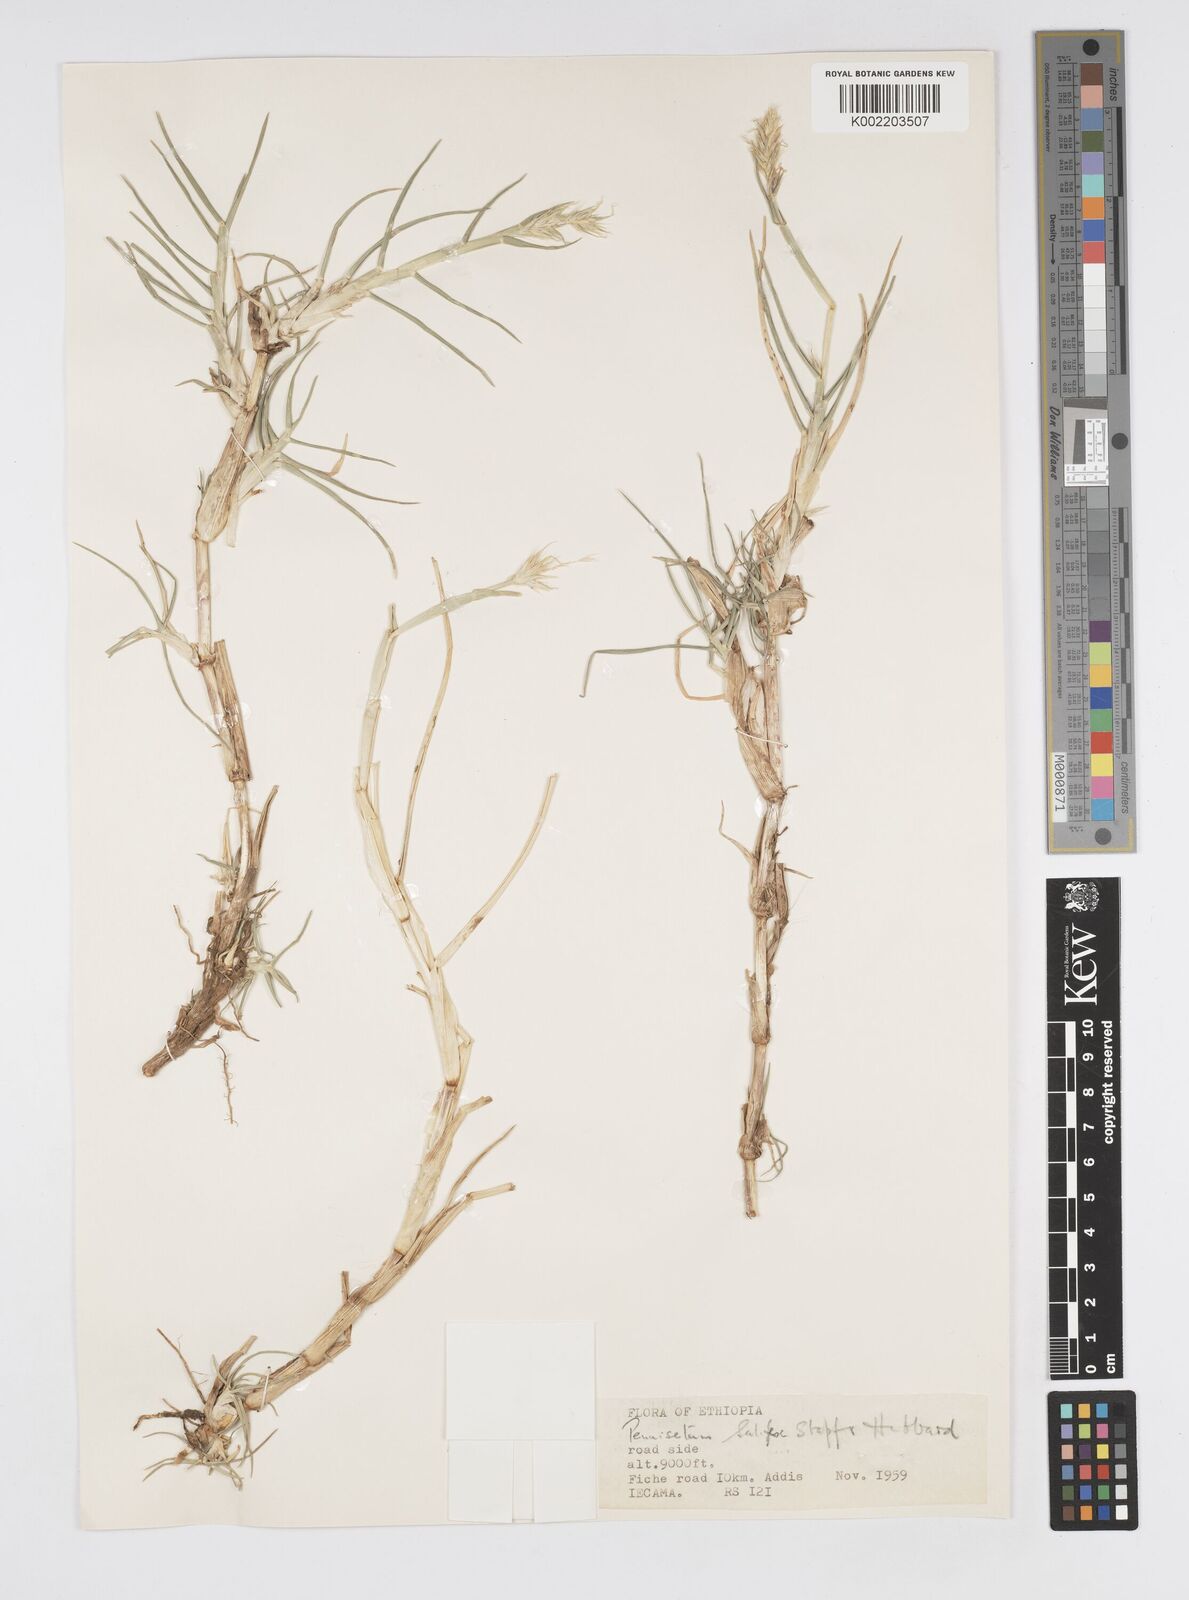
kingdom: Plantae
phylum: Tracheophyta
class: Liliopsida
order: Poales
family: Poaceae
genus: Cenchrus
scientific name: Cenchrus riparius
